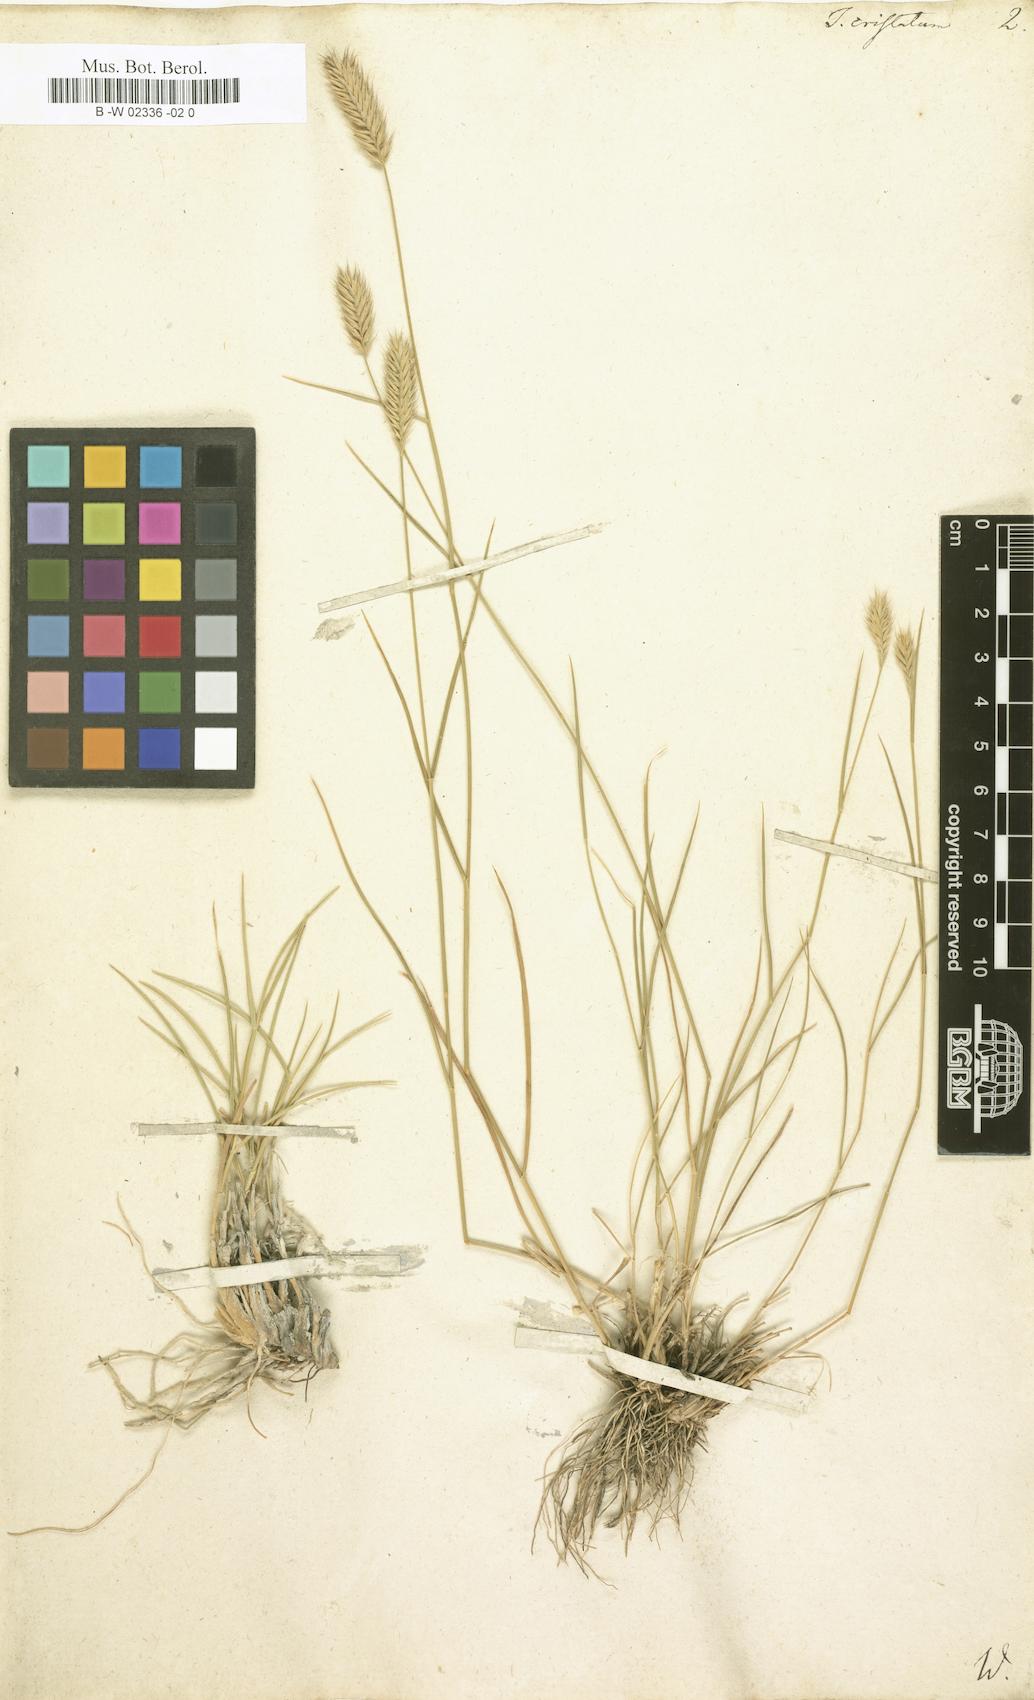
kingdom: Plantae
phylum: Tracheophyta
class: Liliopsida
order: Poales
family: Poaceae
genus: Agropyron
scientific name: Agropyron cristatum
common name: Crested wheatgrass
